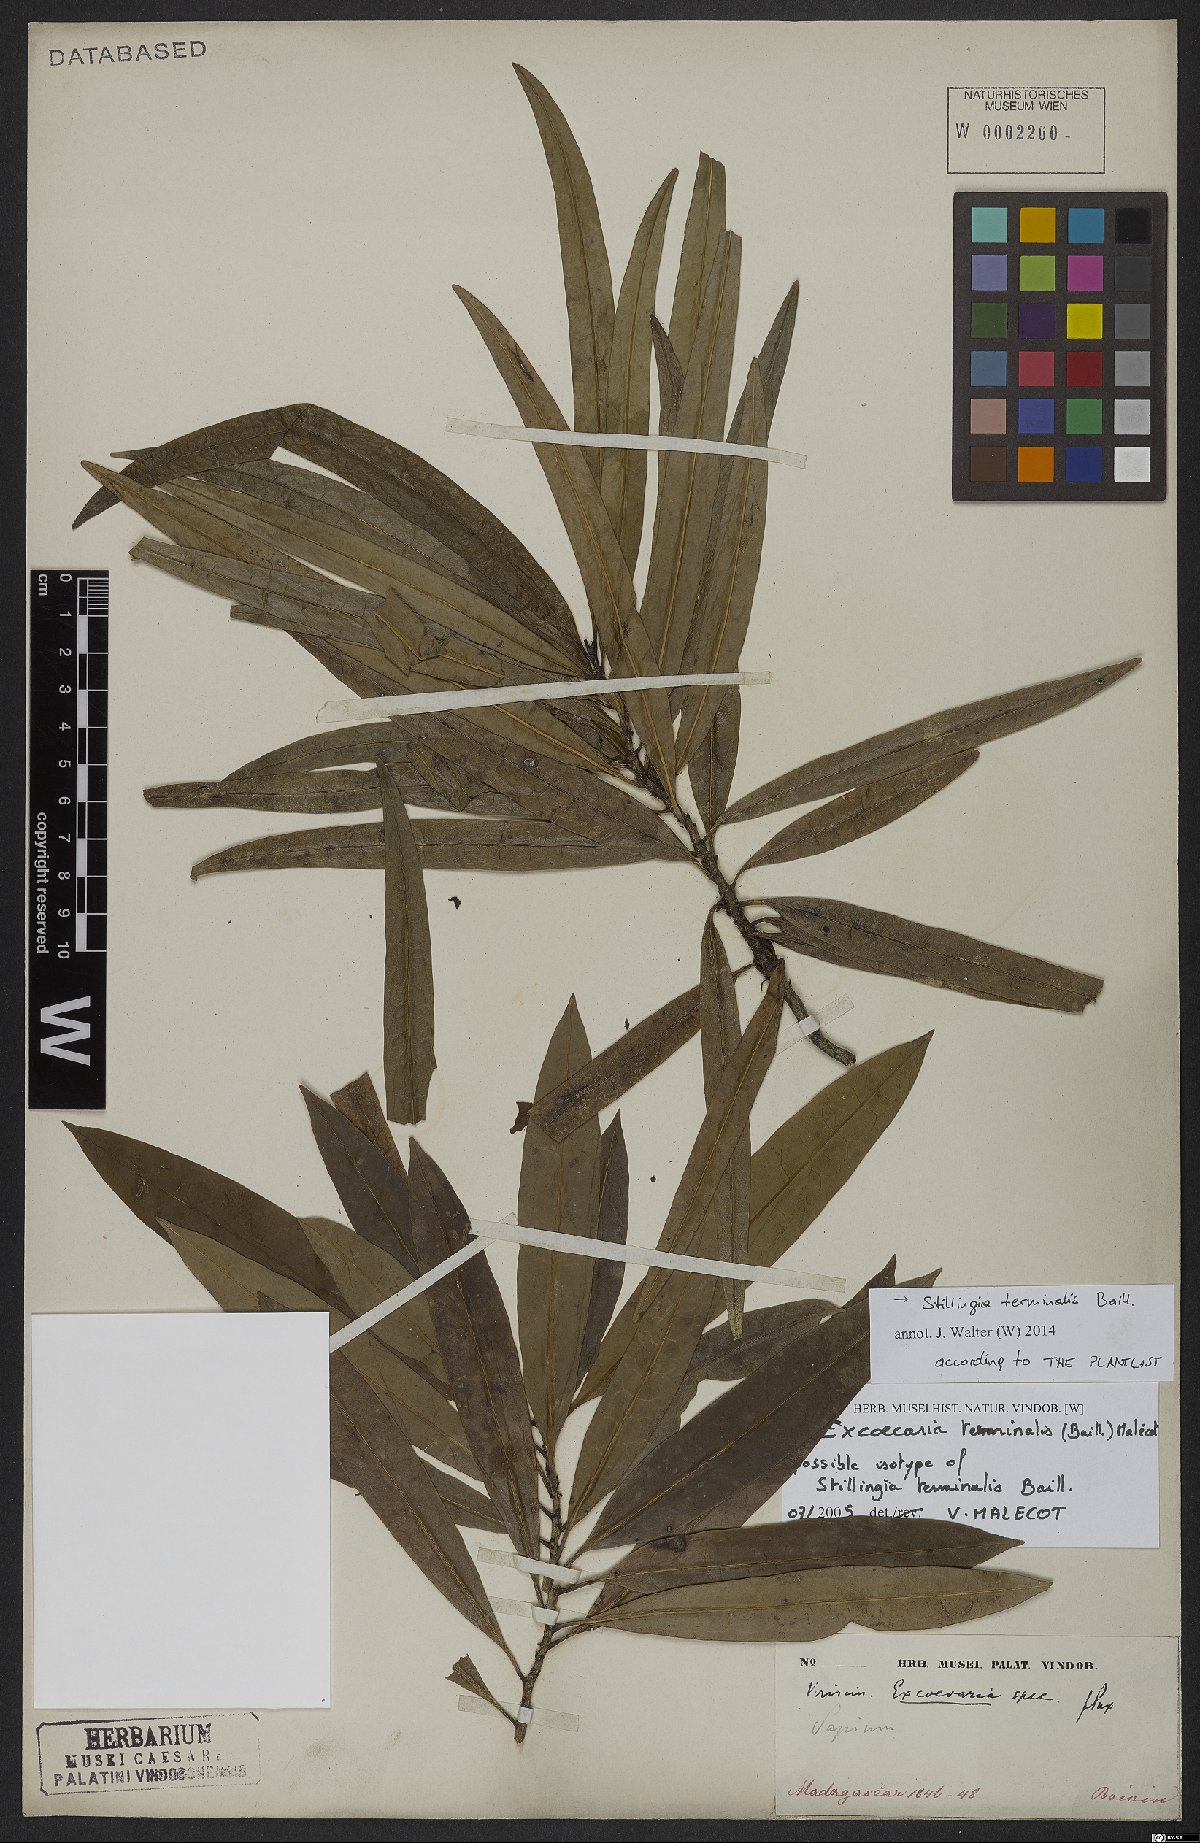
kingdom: Plantae
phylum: Tracheophyta
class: Magnoliopsida
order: Malpighiales
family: Euphorbiaceae
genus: Stillingia
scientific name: Stillingia terminalis
